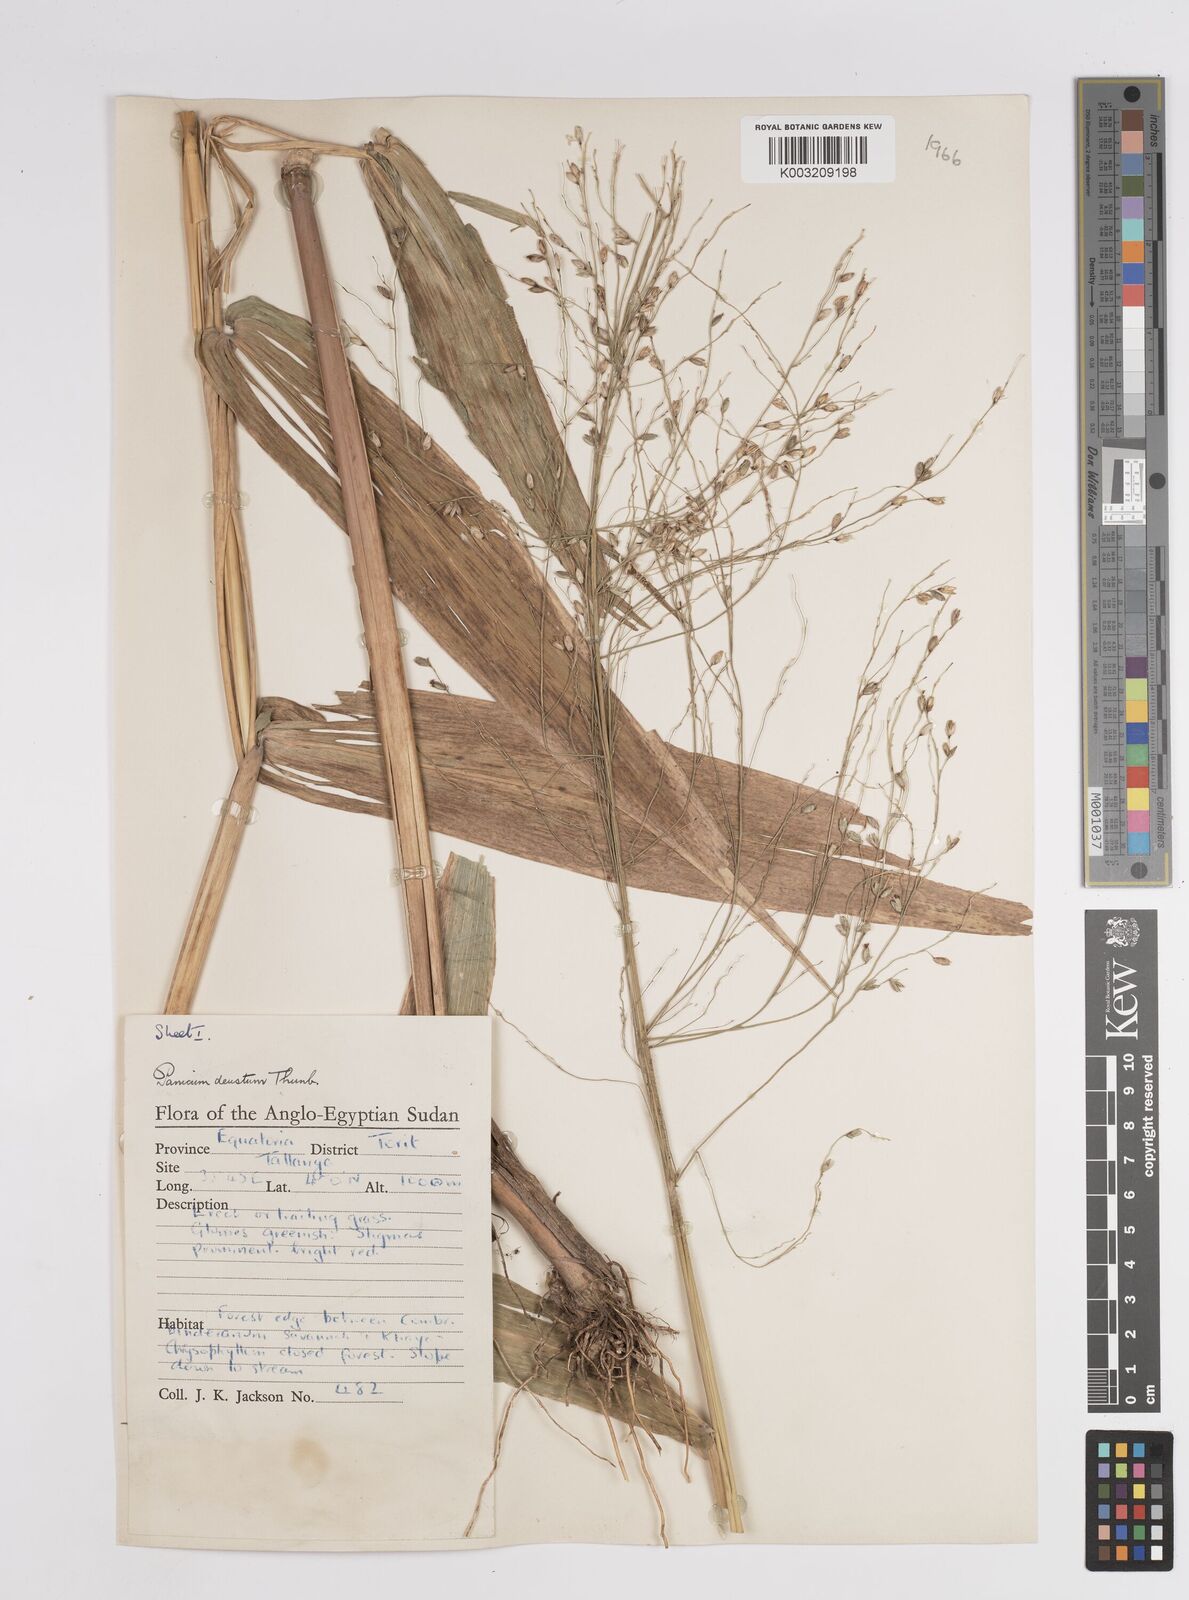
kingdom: Plantae
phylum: Tracheophyta
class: Liliopsida
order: Poales
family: Poaceae
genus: Panicum
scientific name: Panicum
